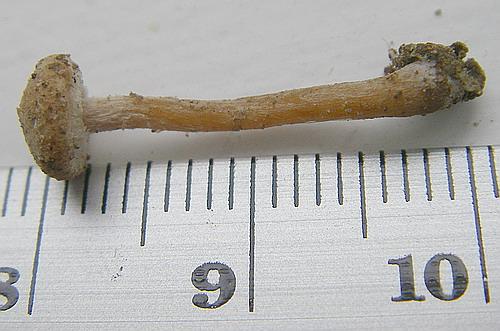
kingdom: Fungi
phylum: Basidiomycota
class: Agaricomycetes
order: Agaricales
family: Tubariaceae
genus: Flammulaster
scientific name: Flammulaster carpophilus
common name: blegrosa grynskælhat
